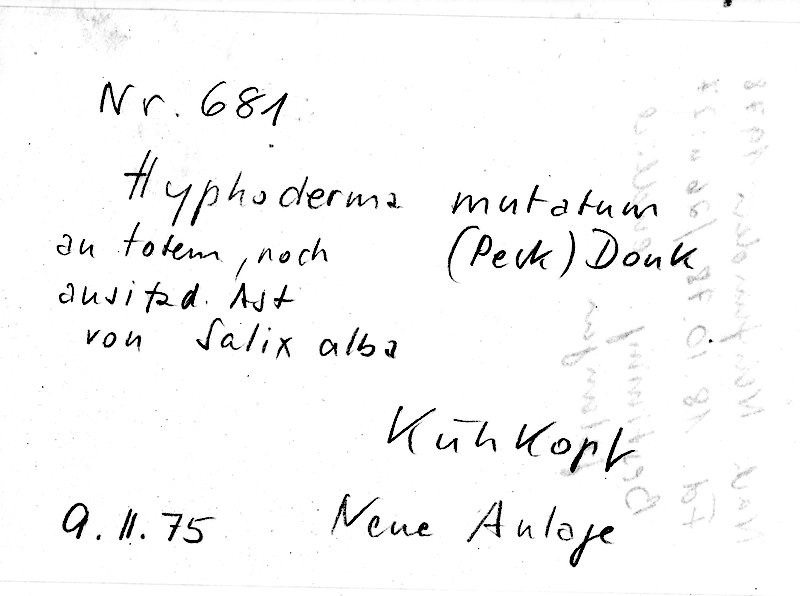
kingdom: Plantae
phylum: Tracheophyta
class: Magnoliopsida
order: Malpighiales
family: Salicaceae
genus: Salix
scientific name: Salix alba
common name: White willow
